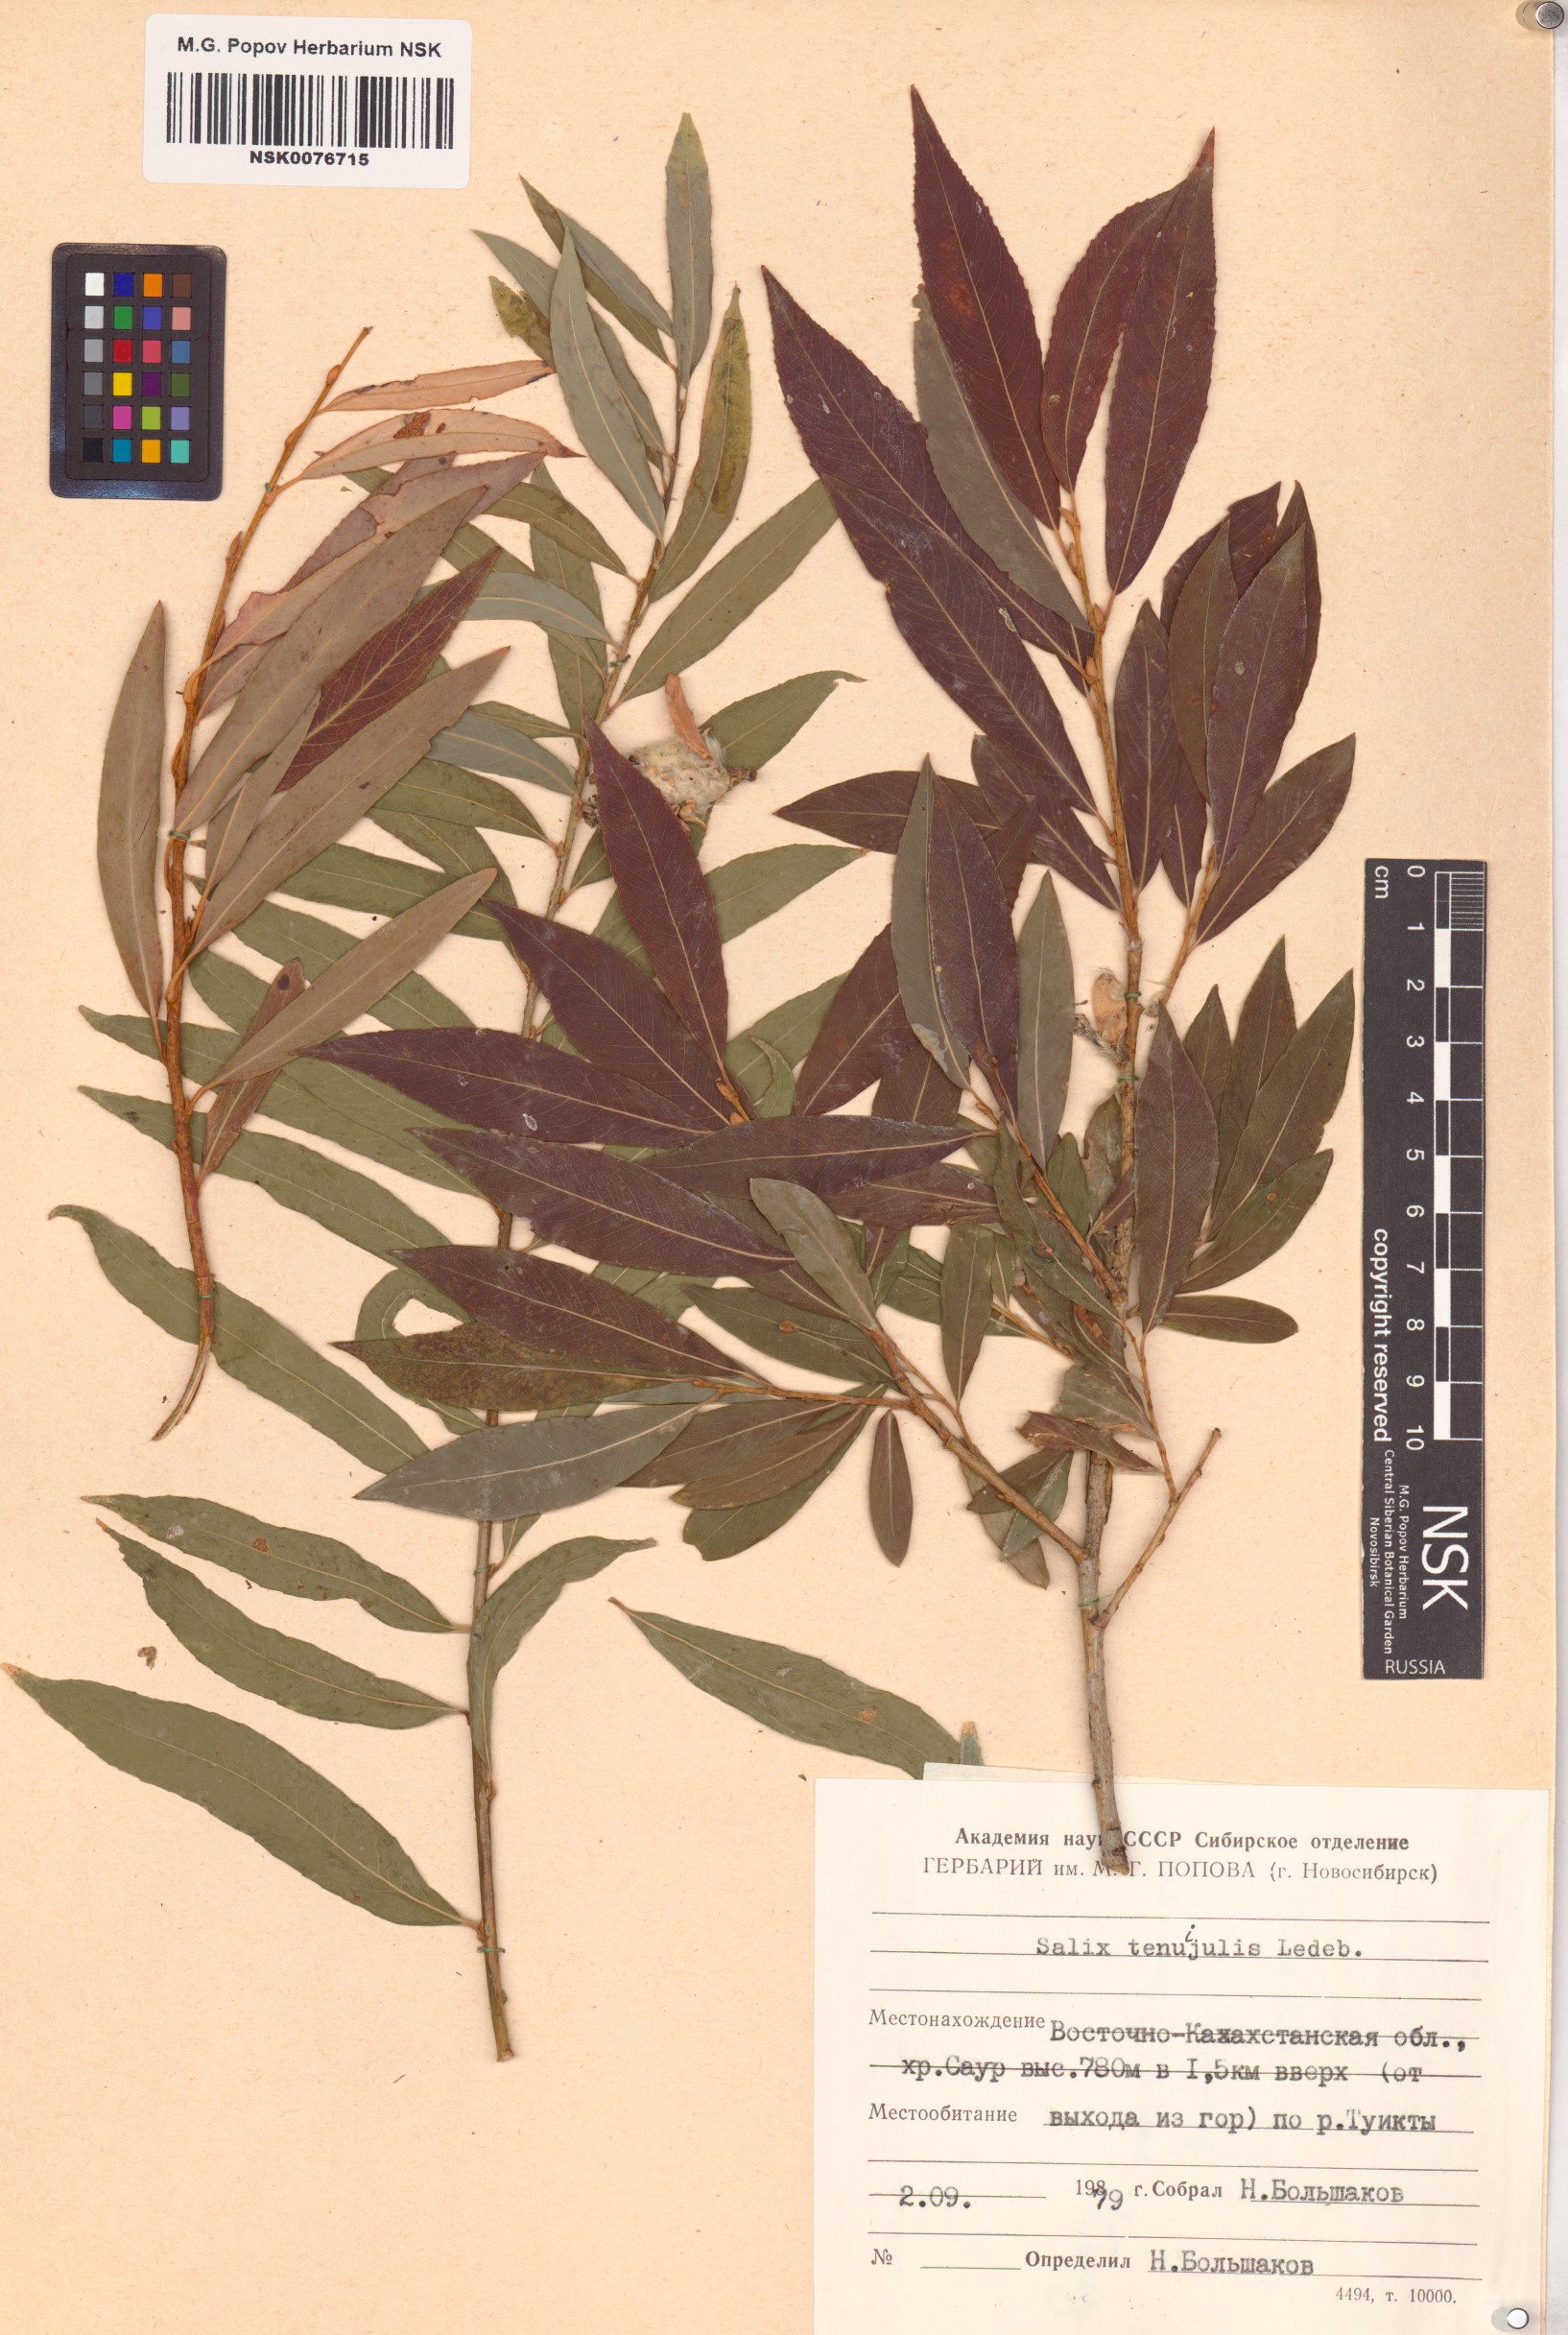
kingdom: Plantae
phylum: Tracheophyta
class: Magnoliopsida
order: Malpighiales
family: Salicaceae
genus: Salix
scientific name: Salix tenuijulis
